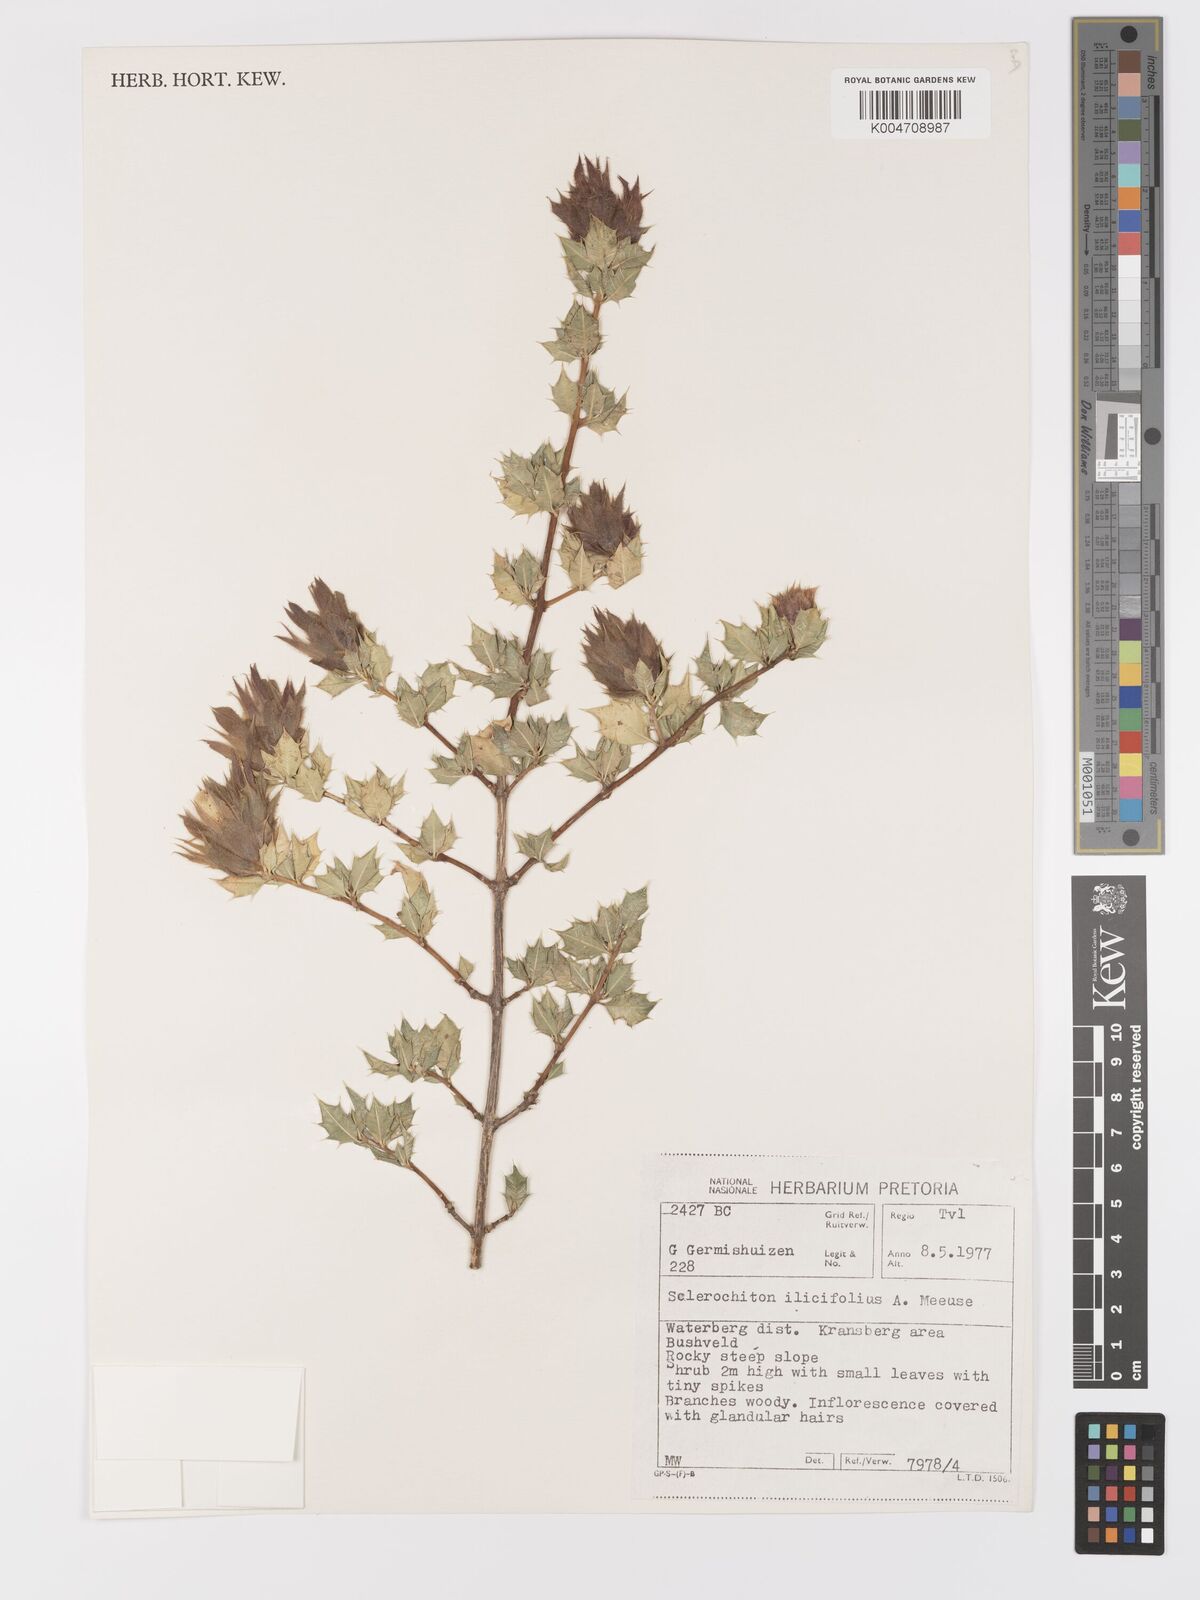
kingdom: Plantae
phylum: Tracheophyta
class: Magnoliopsida
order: Lamiales
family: Acanthaceae
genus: Sclerochiton
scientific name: Sclerochiton ilicifolius
